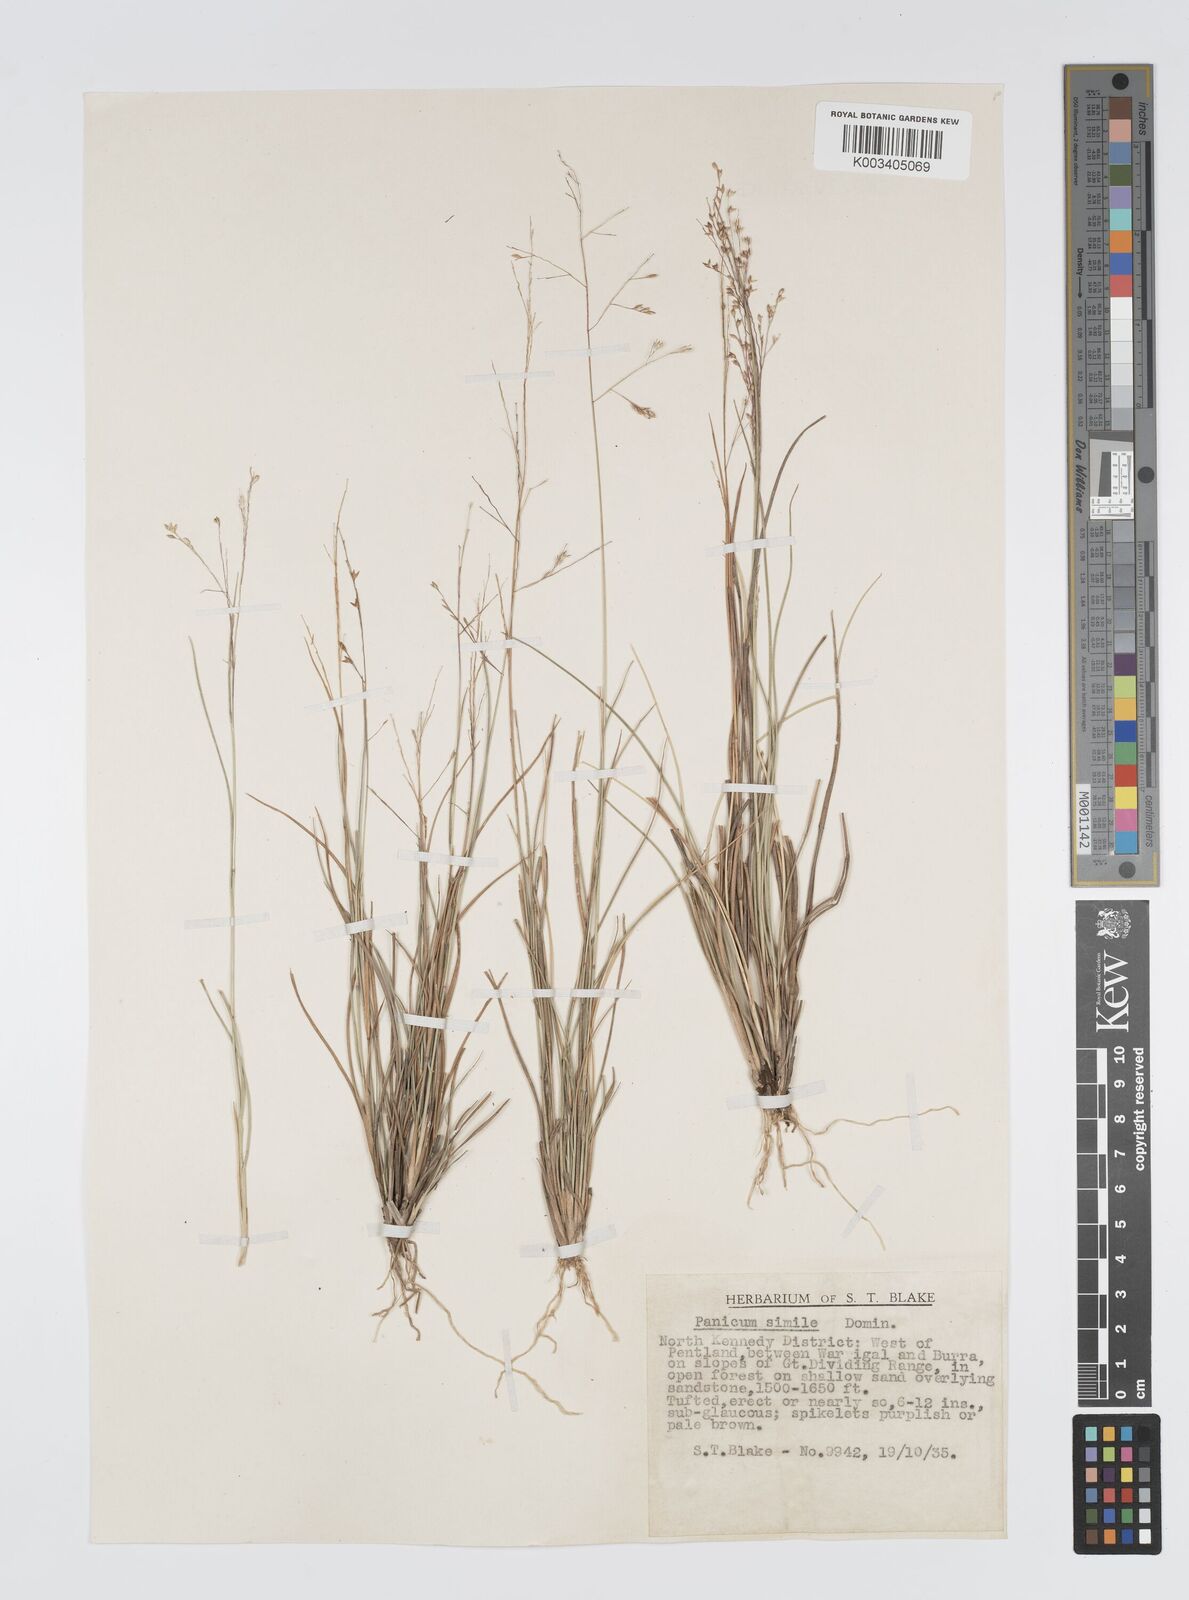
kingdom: Plantae
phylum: Tracheophyta
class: Liliopsida
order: Poales
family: Poaceae
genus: Panicum
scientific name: Panicum simile
